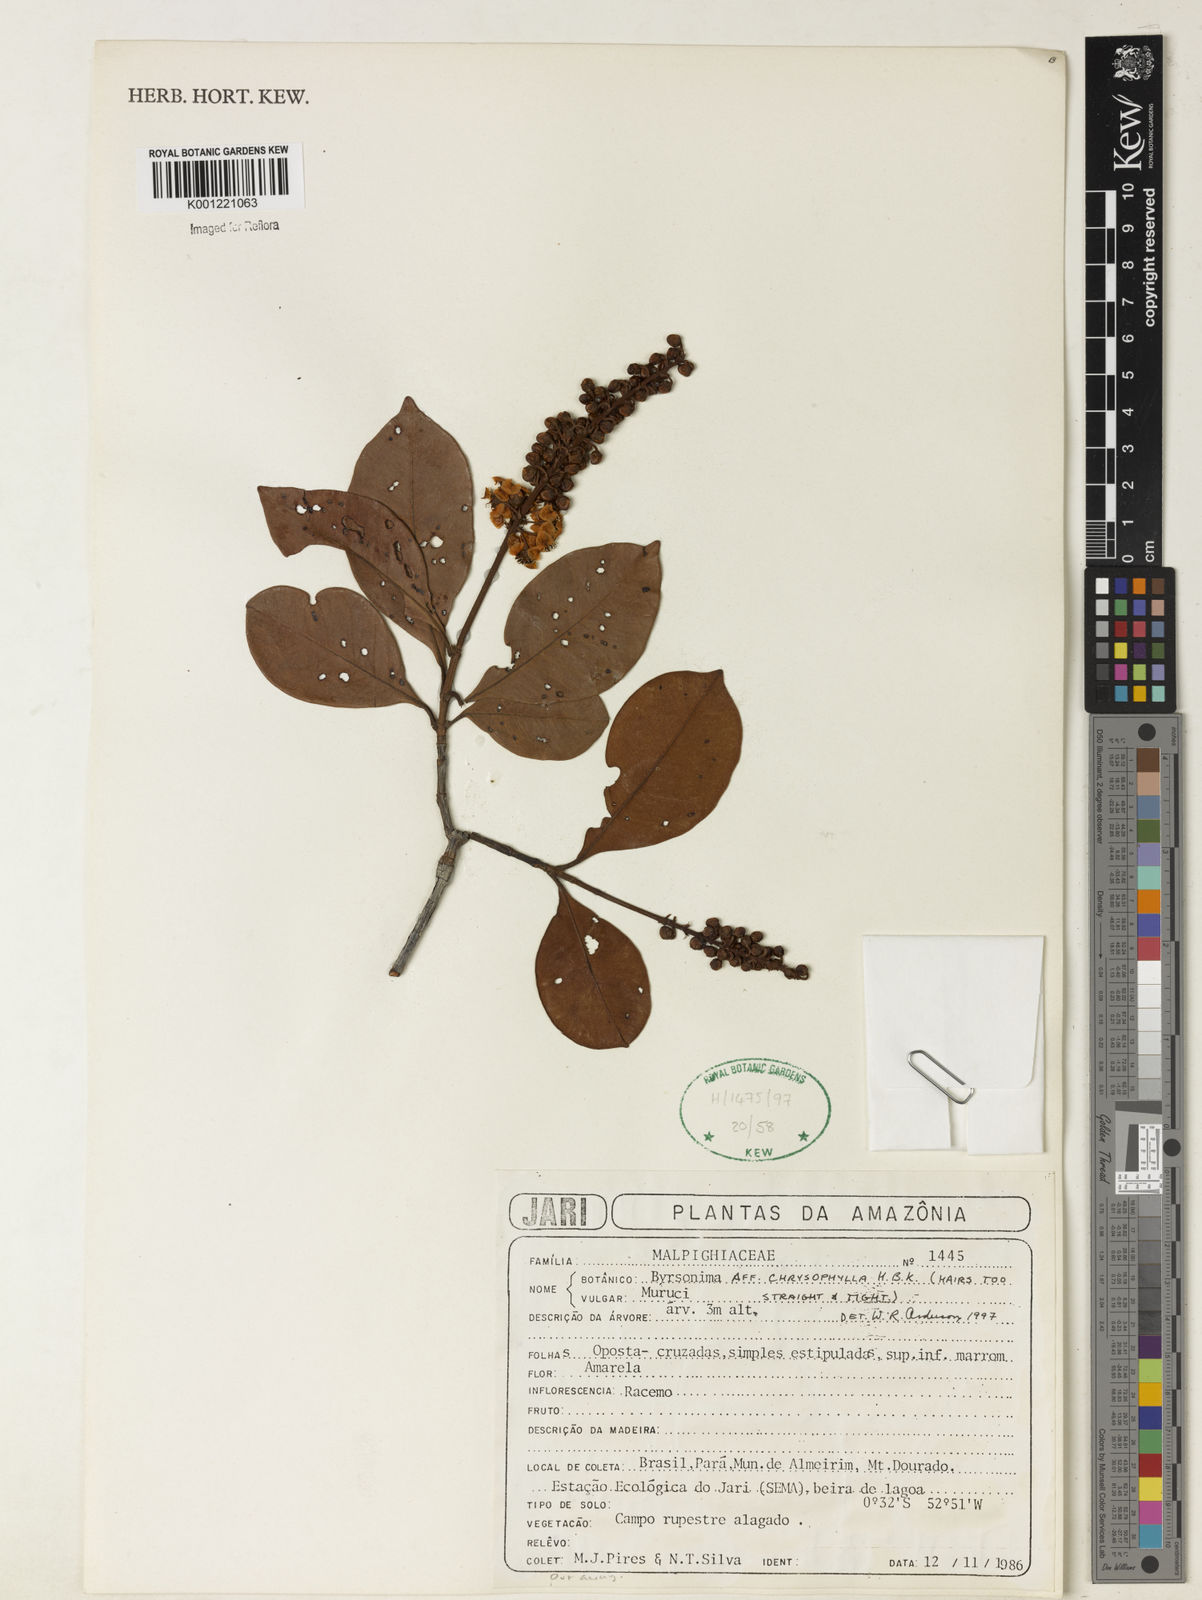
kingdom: Plantae
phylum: Tracheophyta
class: Magnoliopsida
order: Malpighiales
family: Malpighiaceae
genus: Byrsonima
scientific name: Byrsonima chrysophylla
